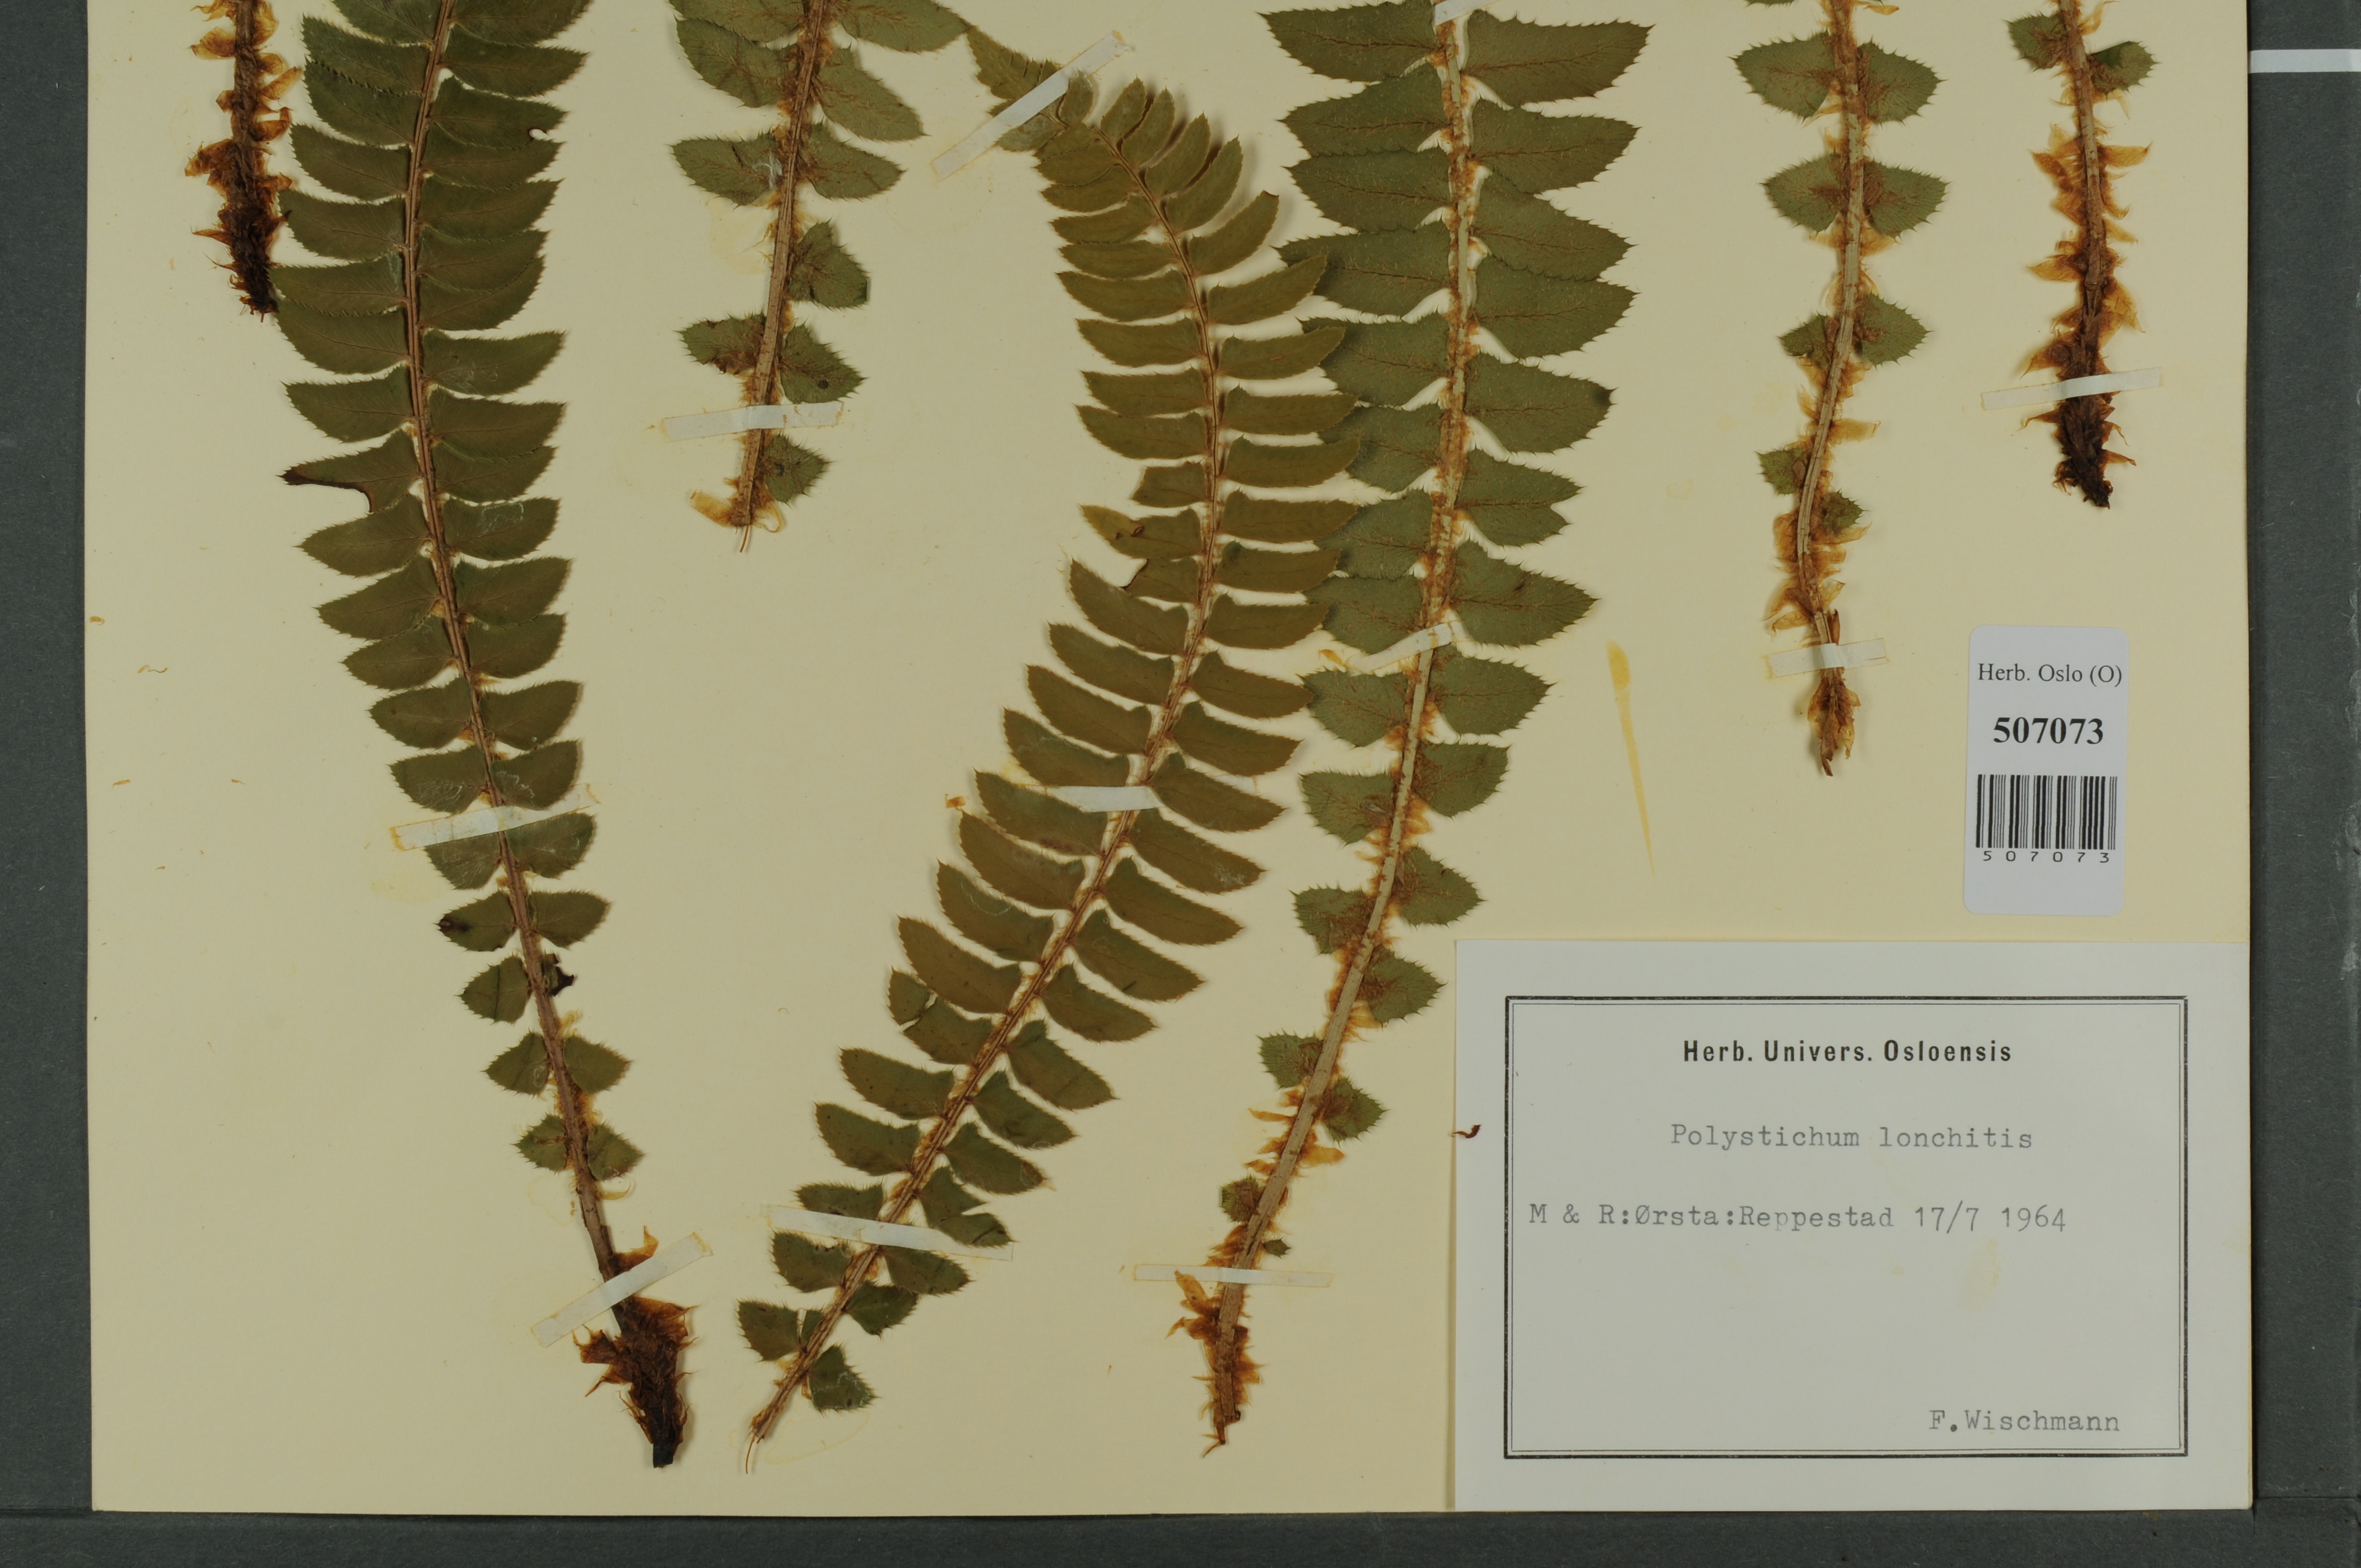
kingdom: Plantae
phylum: Tracheophyta
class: Polypodiopsida
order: Polypodiales
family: Dryopteridaceae
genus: Polystichum
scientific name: Polystichum lonchitis
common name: Holly fern
